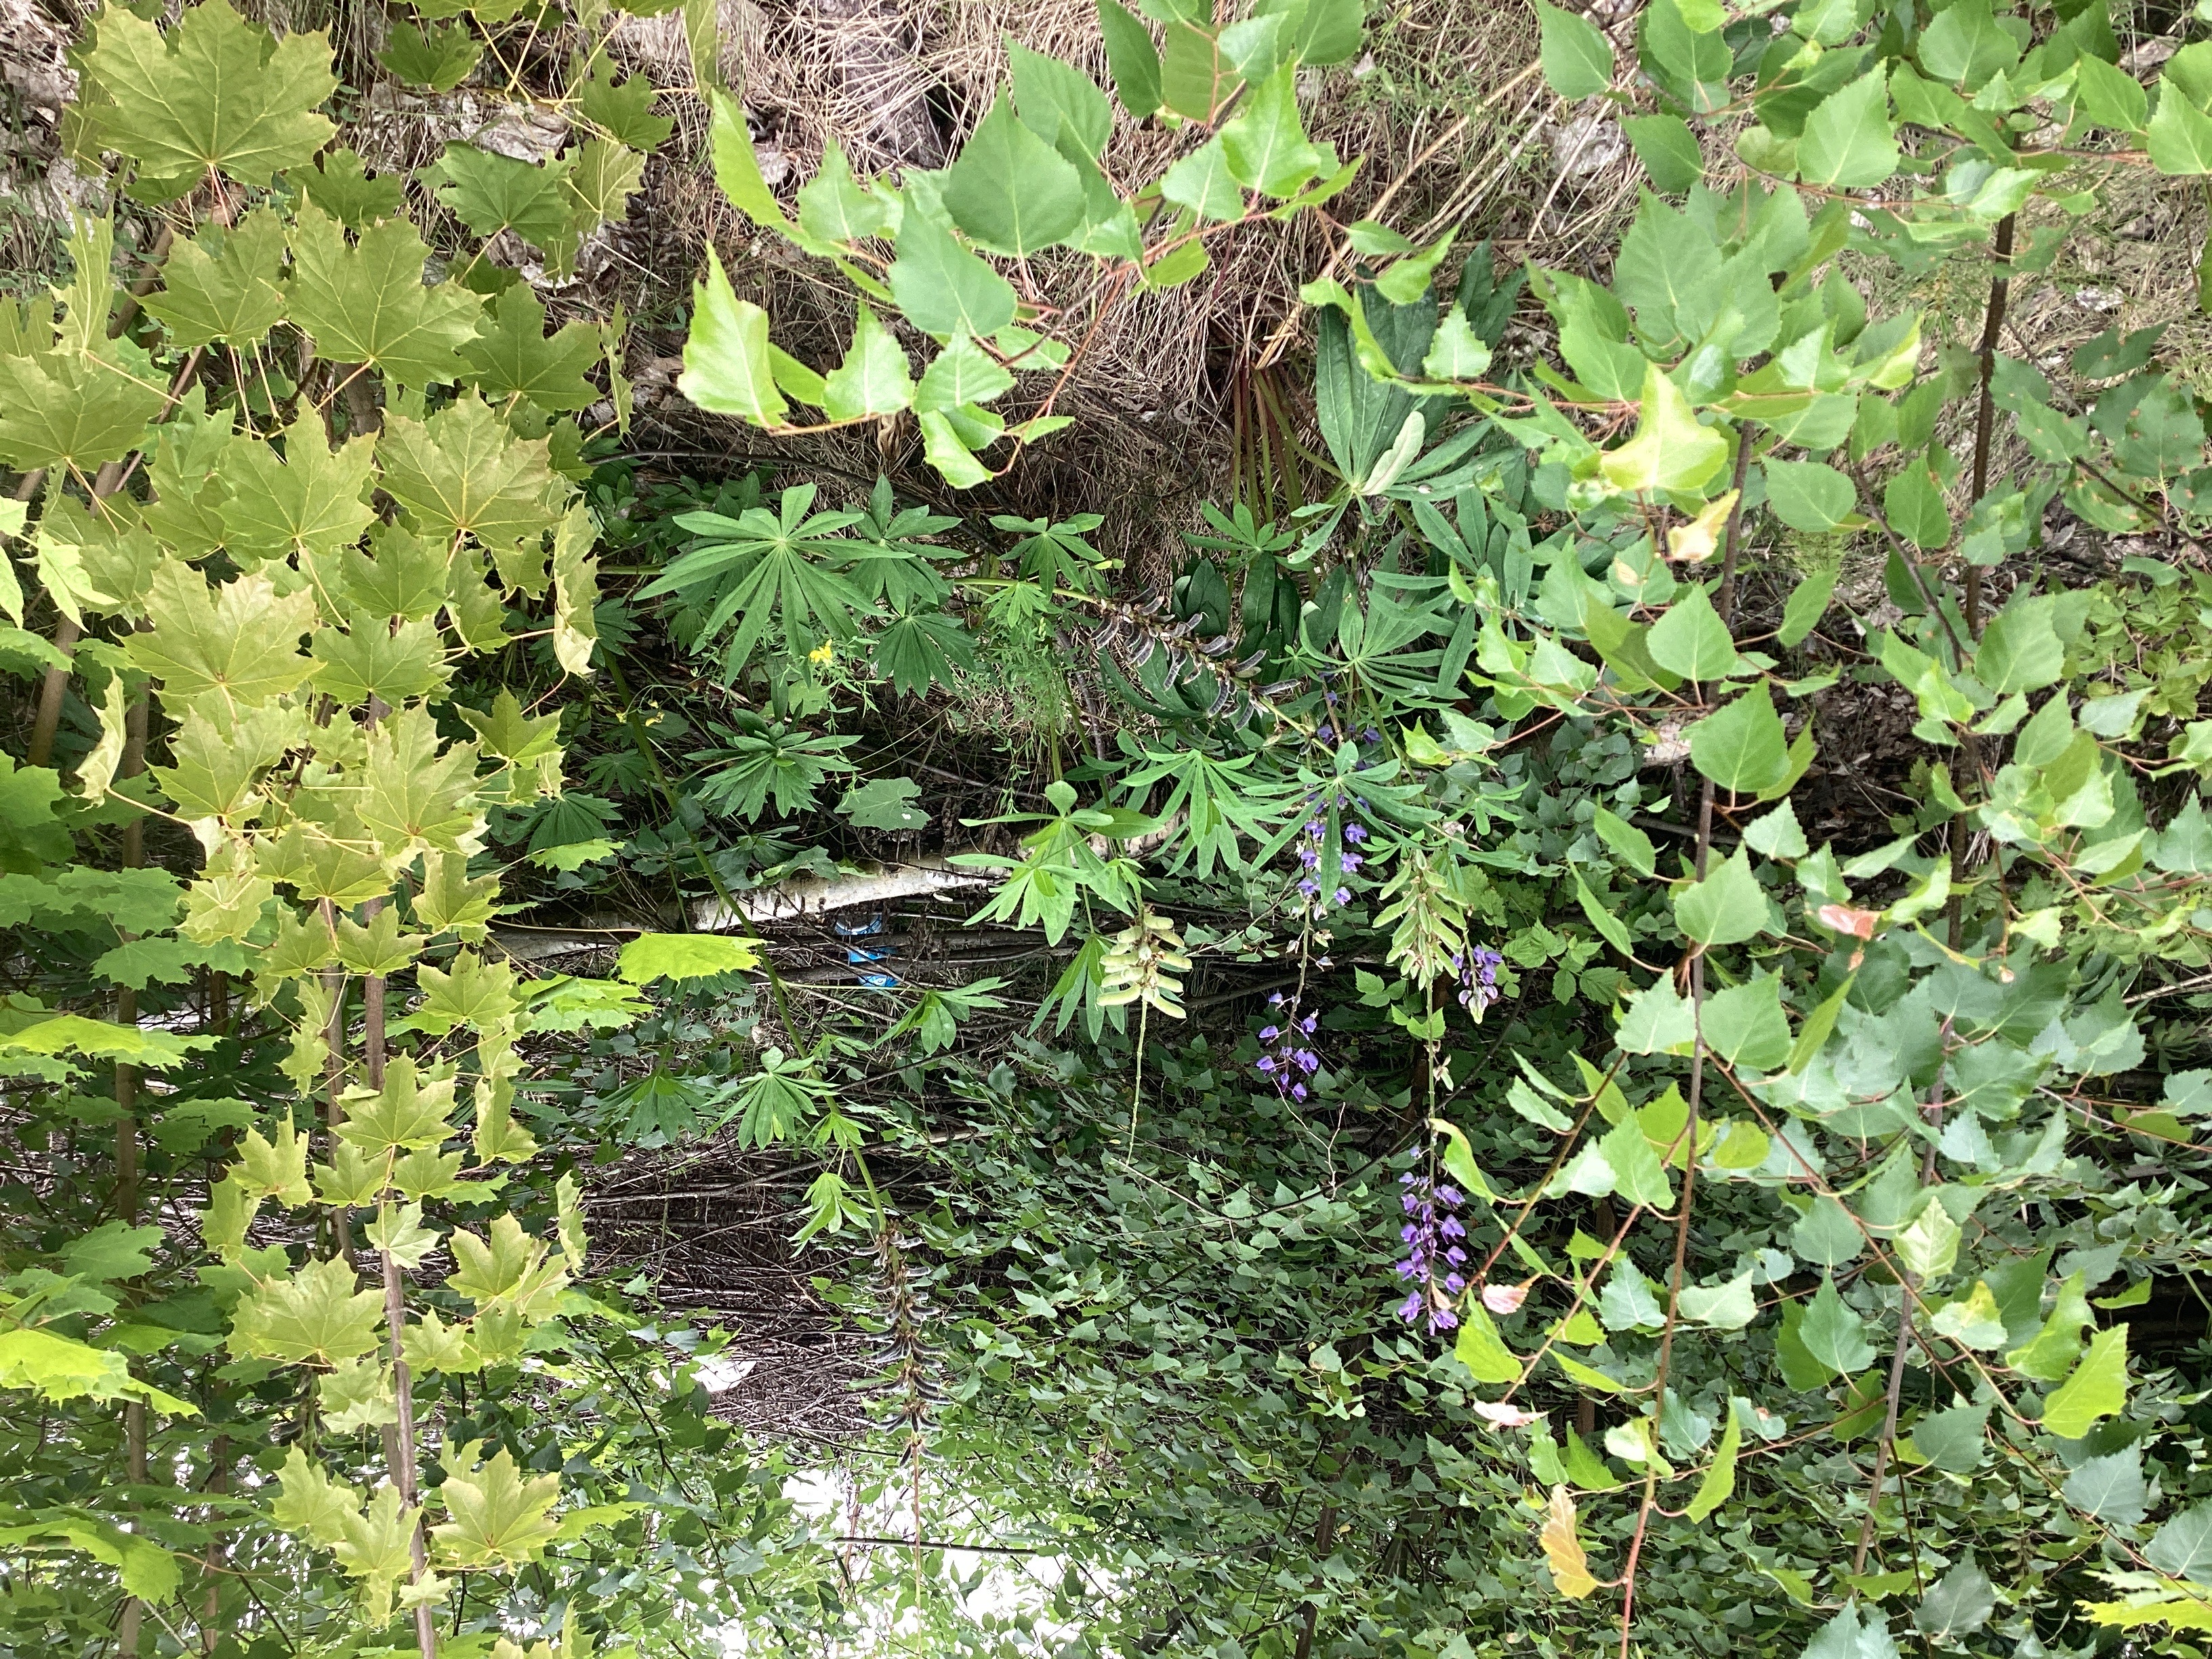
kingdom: Plantae
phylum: Tracheophyta
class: Magnoliopsida
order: Fabales
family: Fabaceae
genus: Lupinus
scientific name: Lupinus polyphyllus
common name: hagelupin
